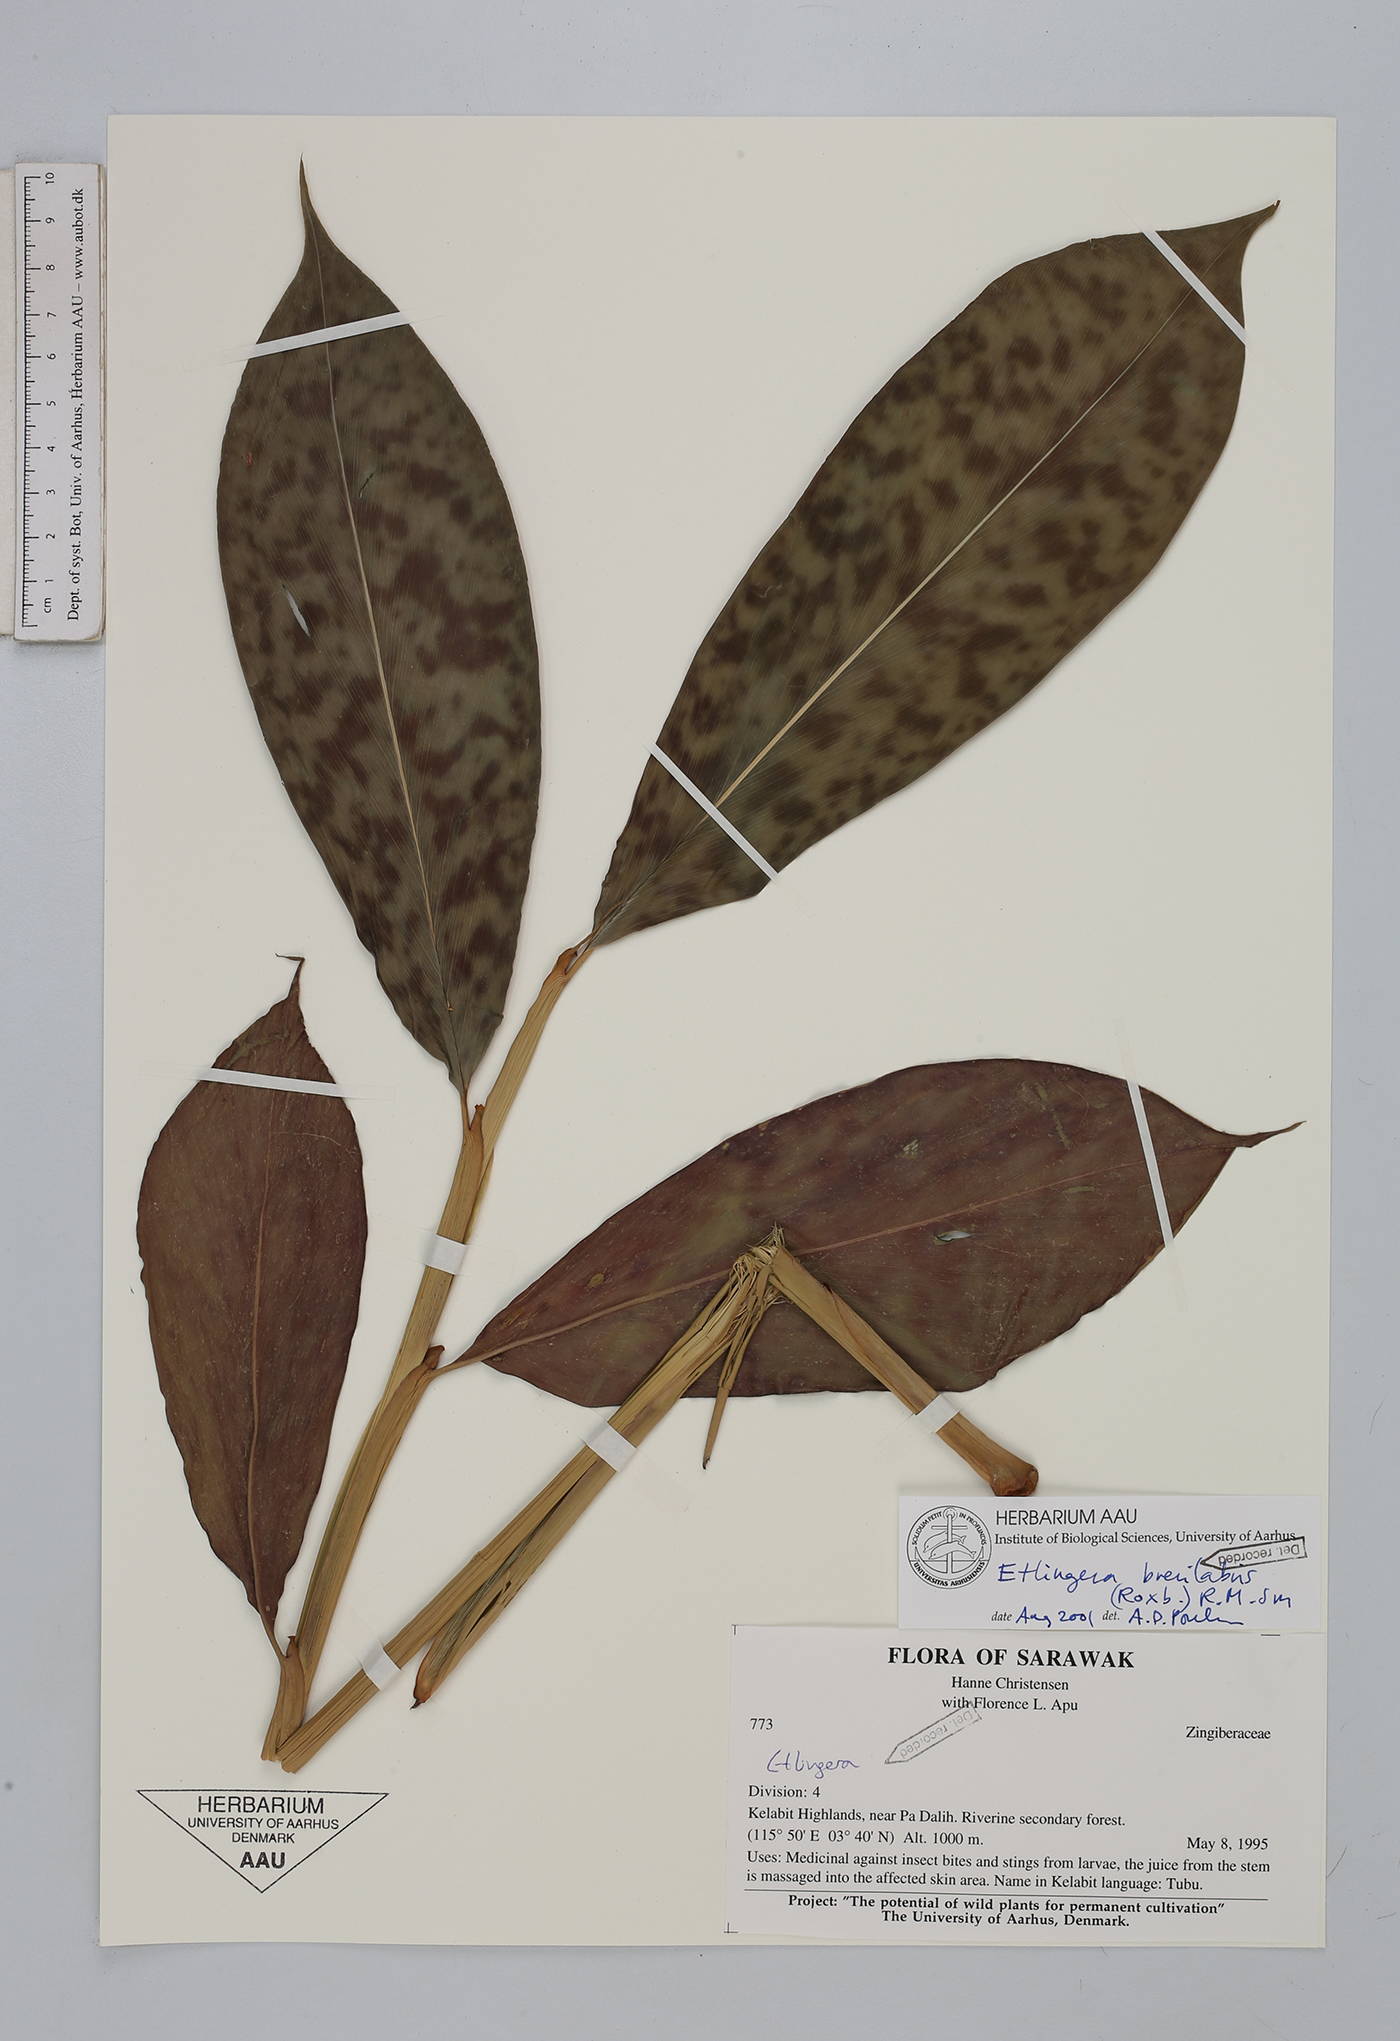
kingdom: Plantae
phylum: Tracheophyta
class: Liliopsida
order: Zingiberales
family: Zingiberaceae
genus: Etlingera
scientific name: Etlingera brevilabrum
